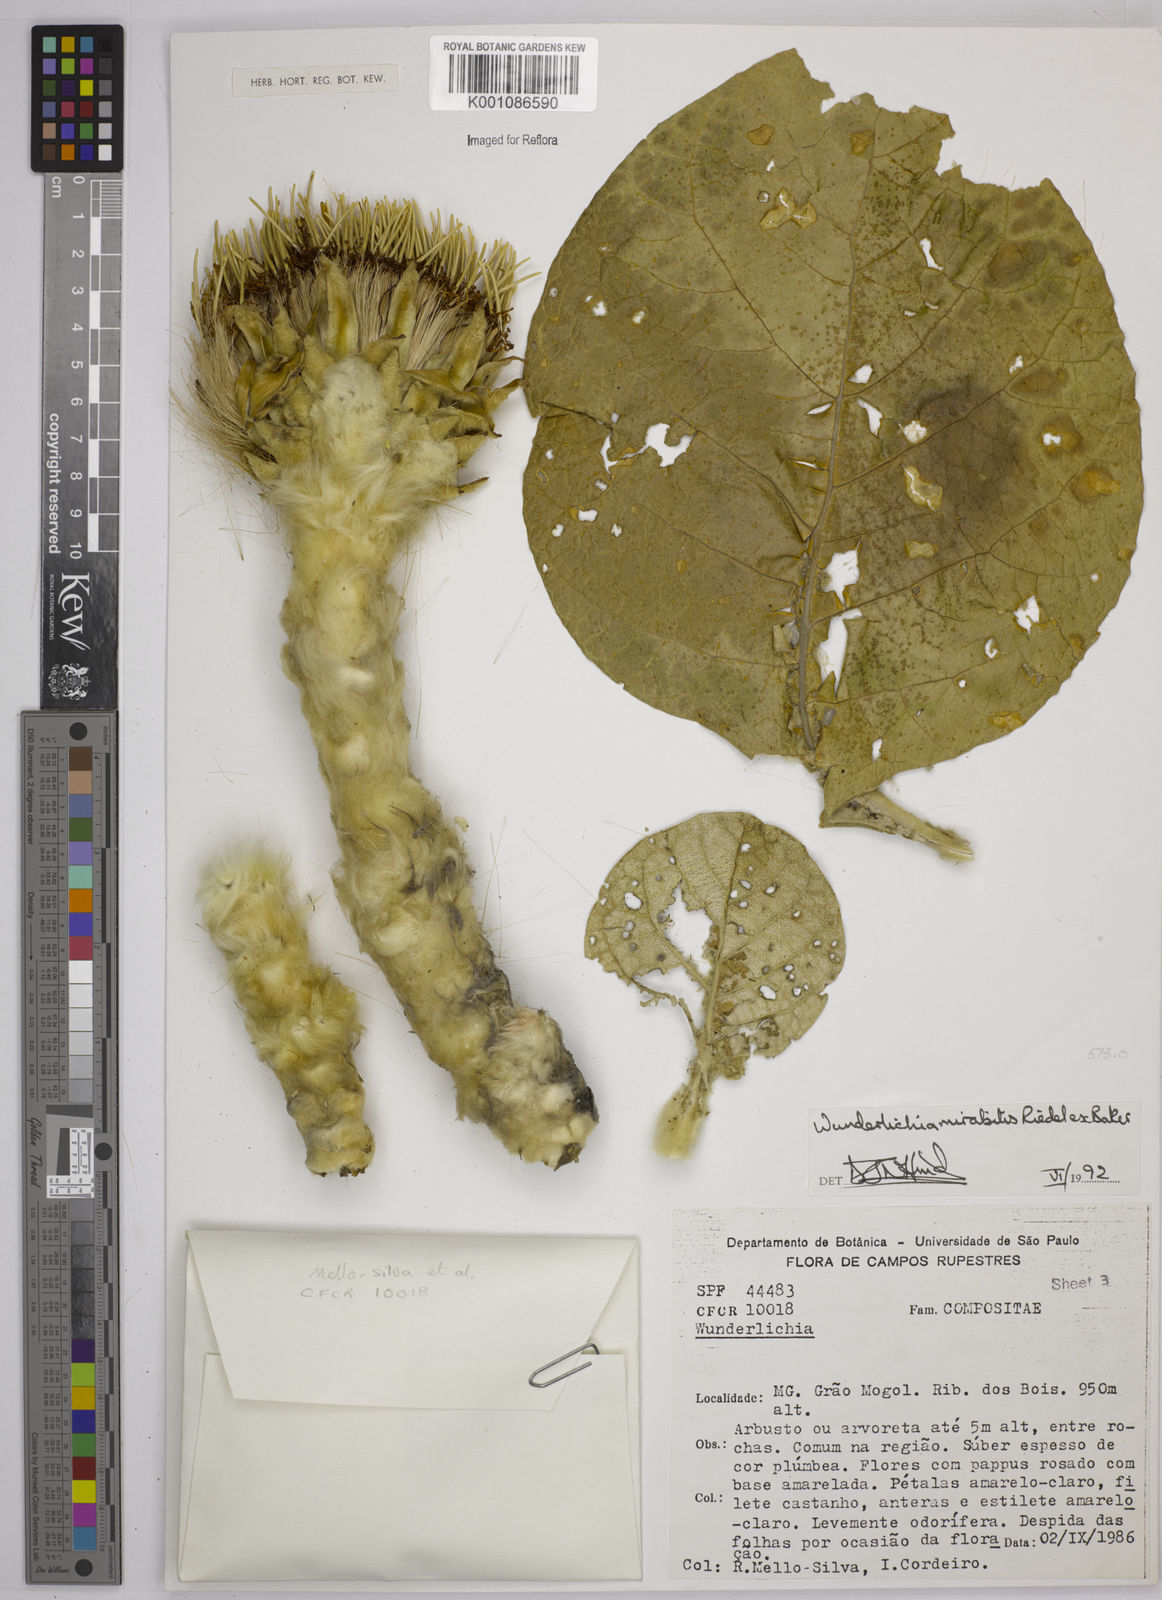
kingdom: Plantae
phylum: Tracheophyta
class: Magnoliopsida
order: Asterales
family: Asteraceae
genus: Wunderlichia
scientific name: Wunderlichia mirabilis
